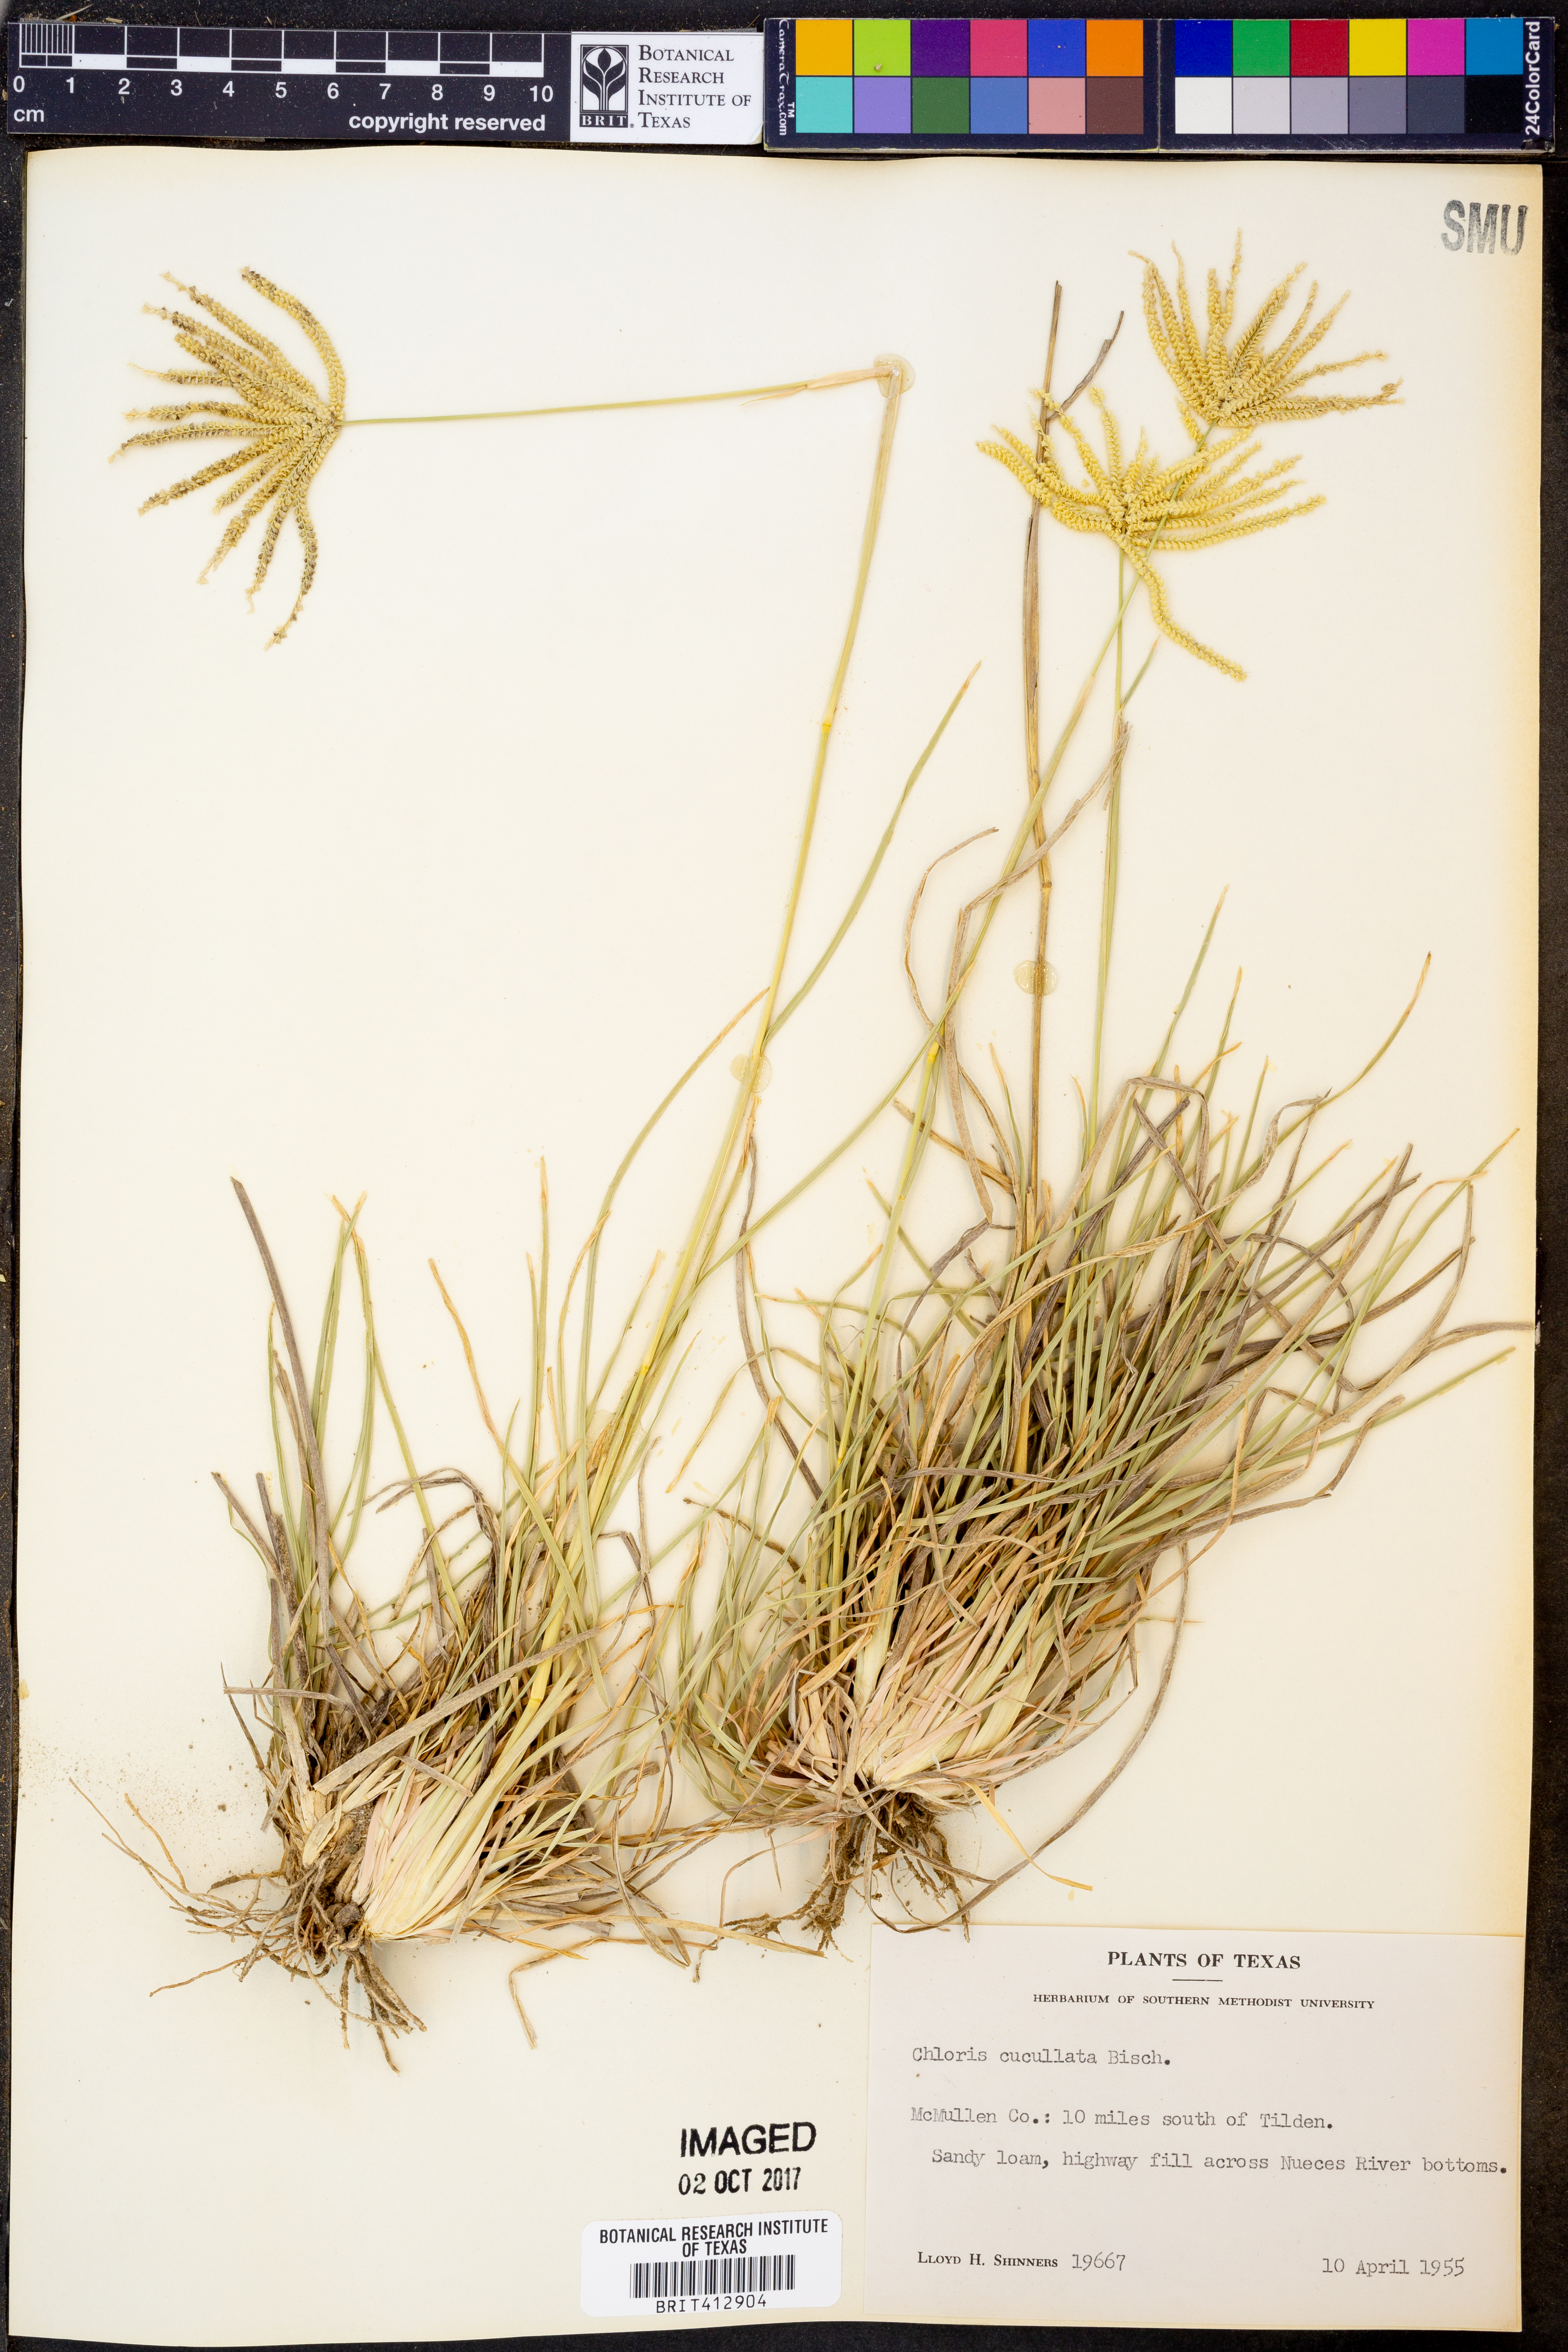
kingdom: Plantae
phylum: Tracheophyta
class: Liliopsida
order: Poales
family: Poaceae
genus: Chloris
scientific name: Chloris cucullata
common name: Hooded windmill grass
